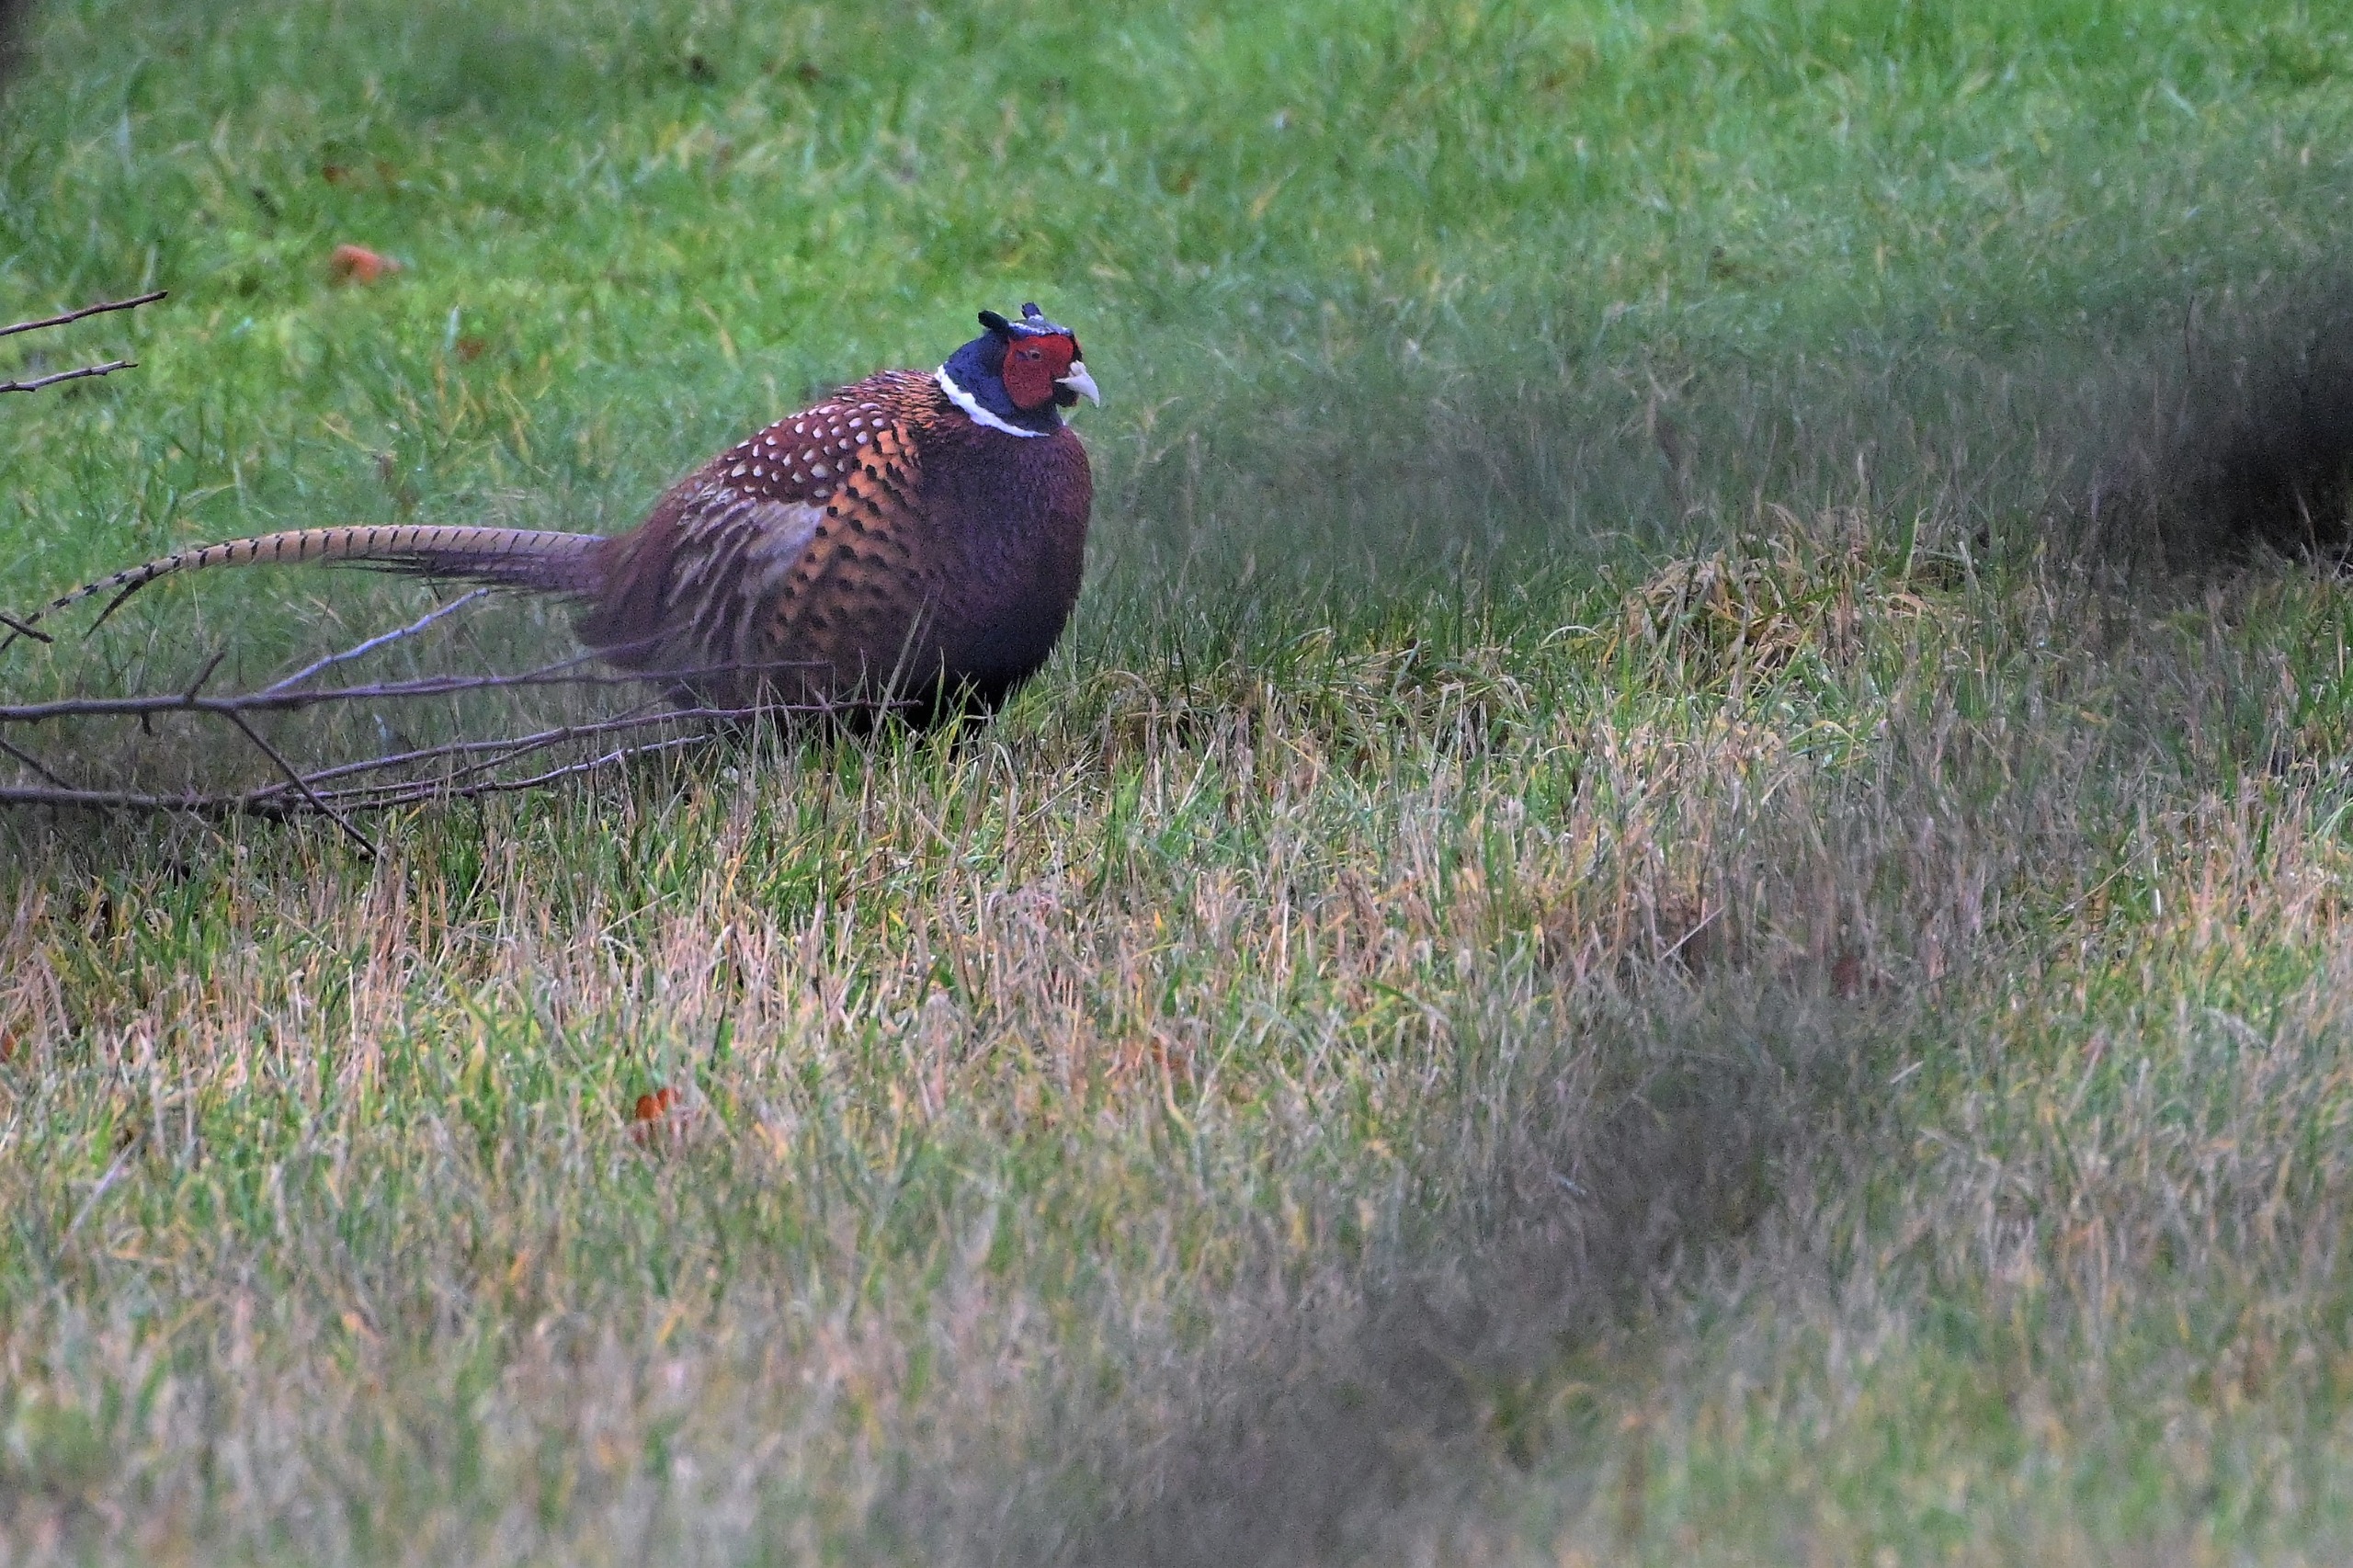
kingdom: Animalia
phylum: Chordata
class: Aves
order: Galliformes
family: Phasianidae
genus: Phasianus
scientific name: Phasianus colchicus
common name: Fasan
